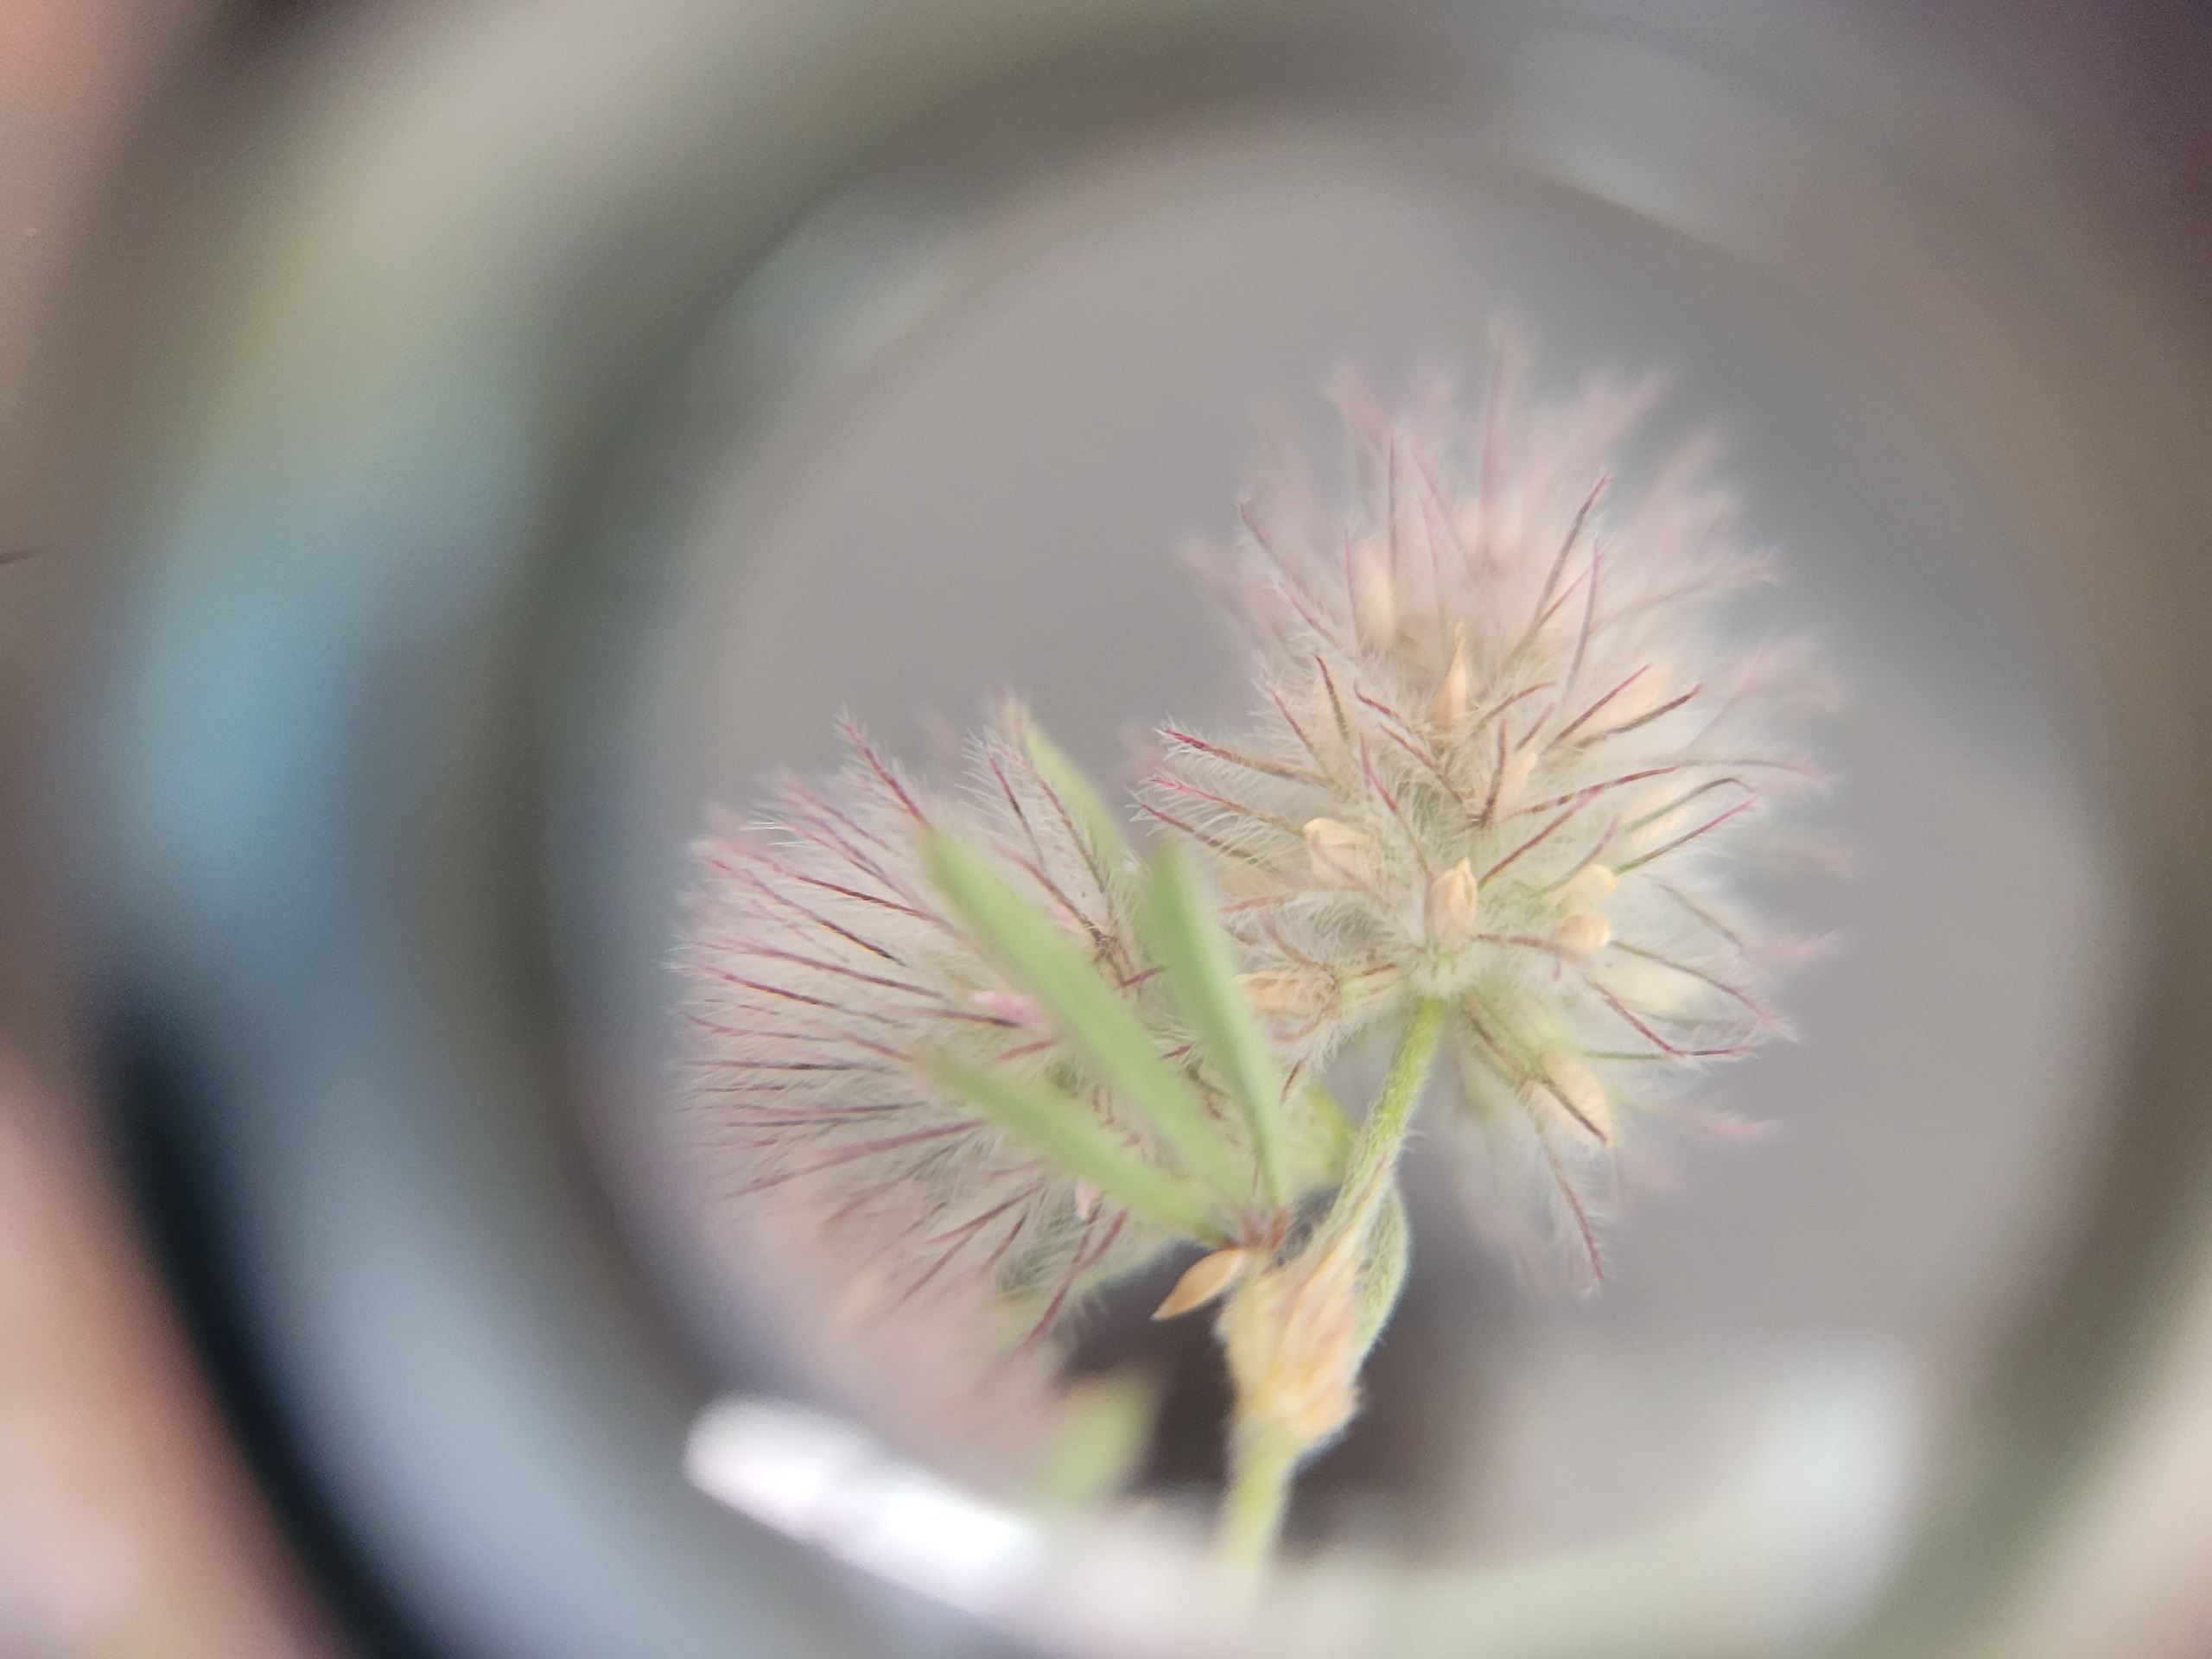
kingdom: Plantae
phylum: Tracheophyta
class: Magnoliopsida
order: Fabales
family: Fabaceae
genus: Trifolium
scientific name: Trifolium arvense
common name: Hare-kløver
